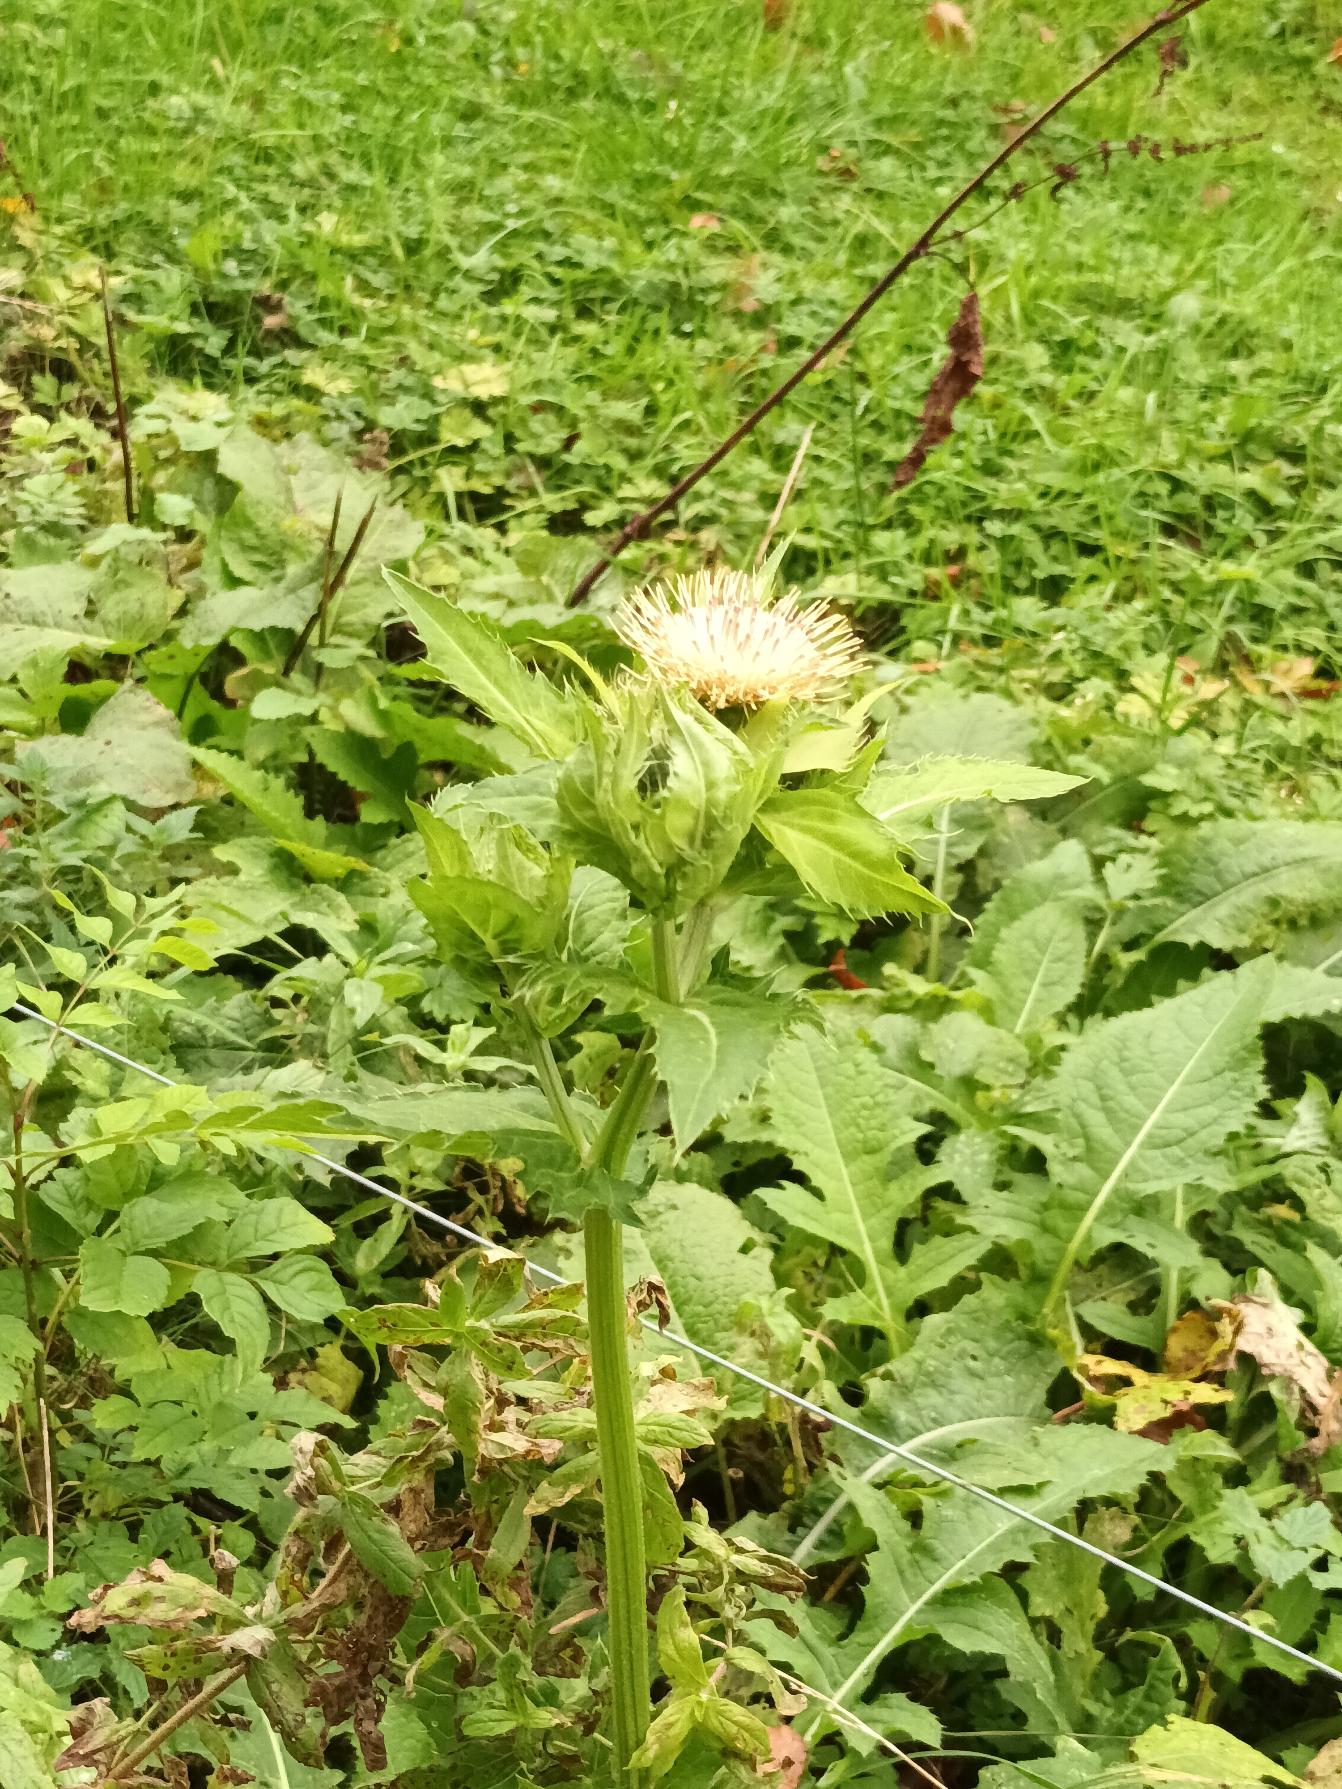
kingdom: Plantae
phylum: Tracheophyta
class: Magnoliopsida
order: Asterales
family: Asteraceae
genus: Cirsium
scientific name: Cirsium oleraceum
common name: Kål-tidsel
